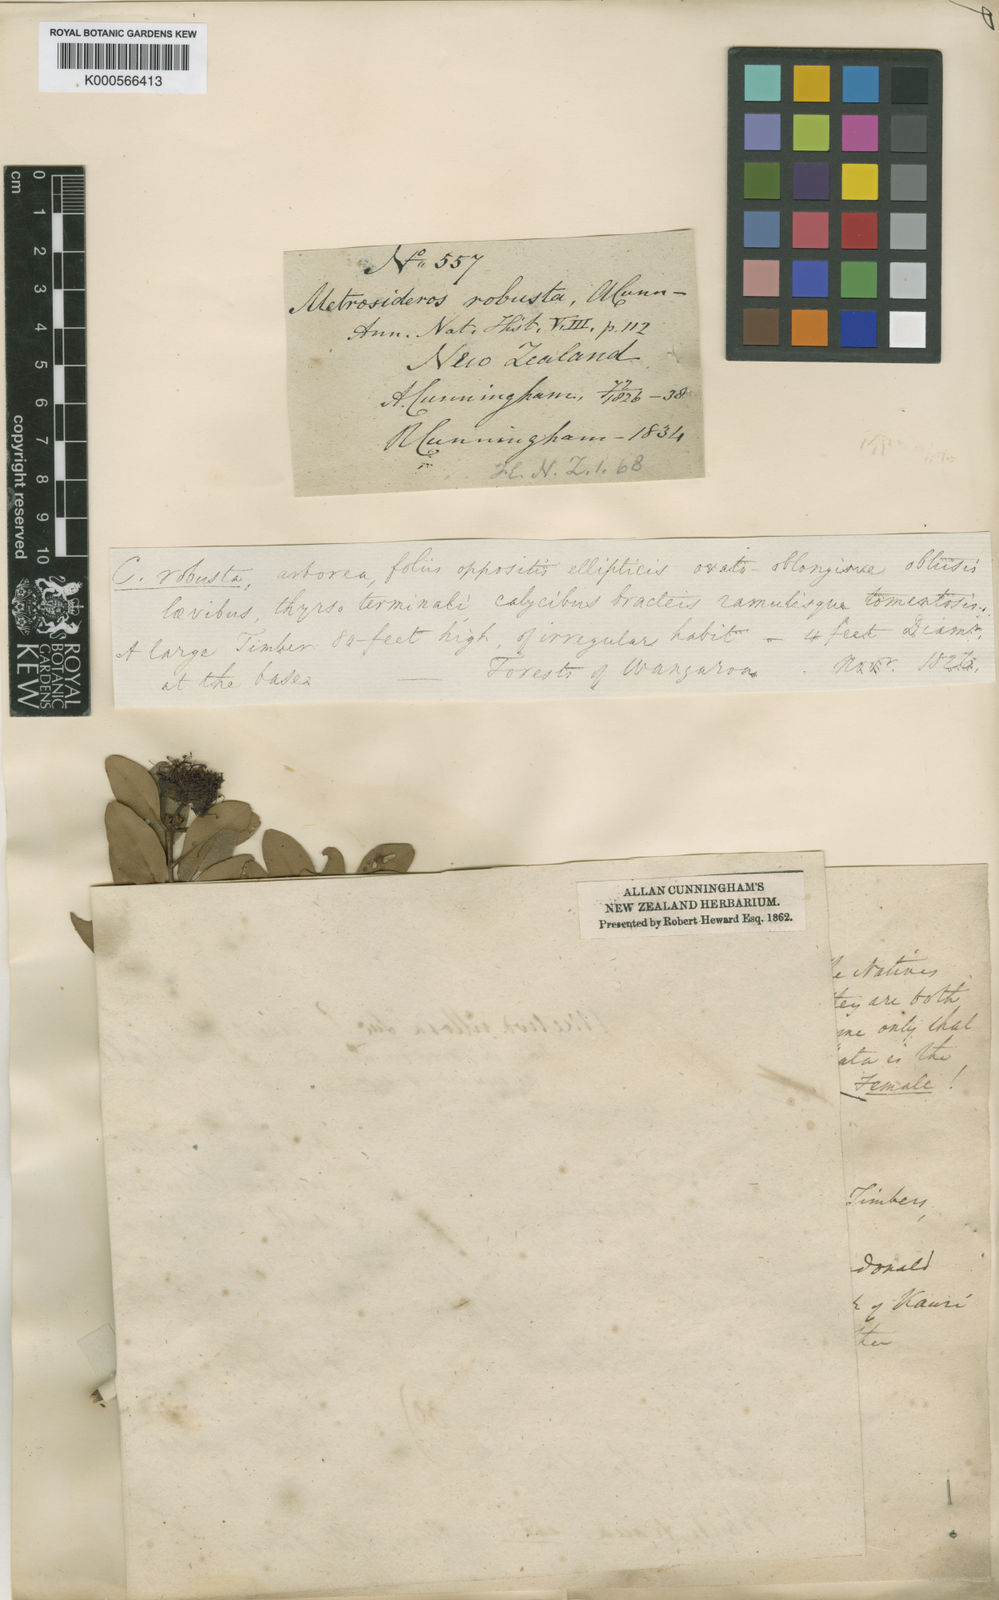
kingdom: Plantae
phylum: Tracheophyta
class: Magnoliopsida
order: Myrtales
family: Myrtaceae
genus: Metrosideros
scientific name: Metrosideros robusta
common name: Northern rata
